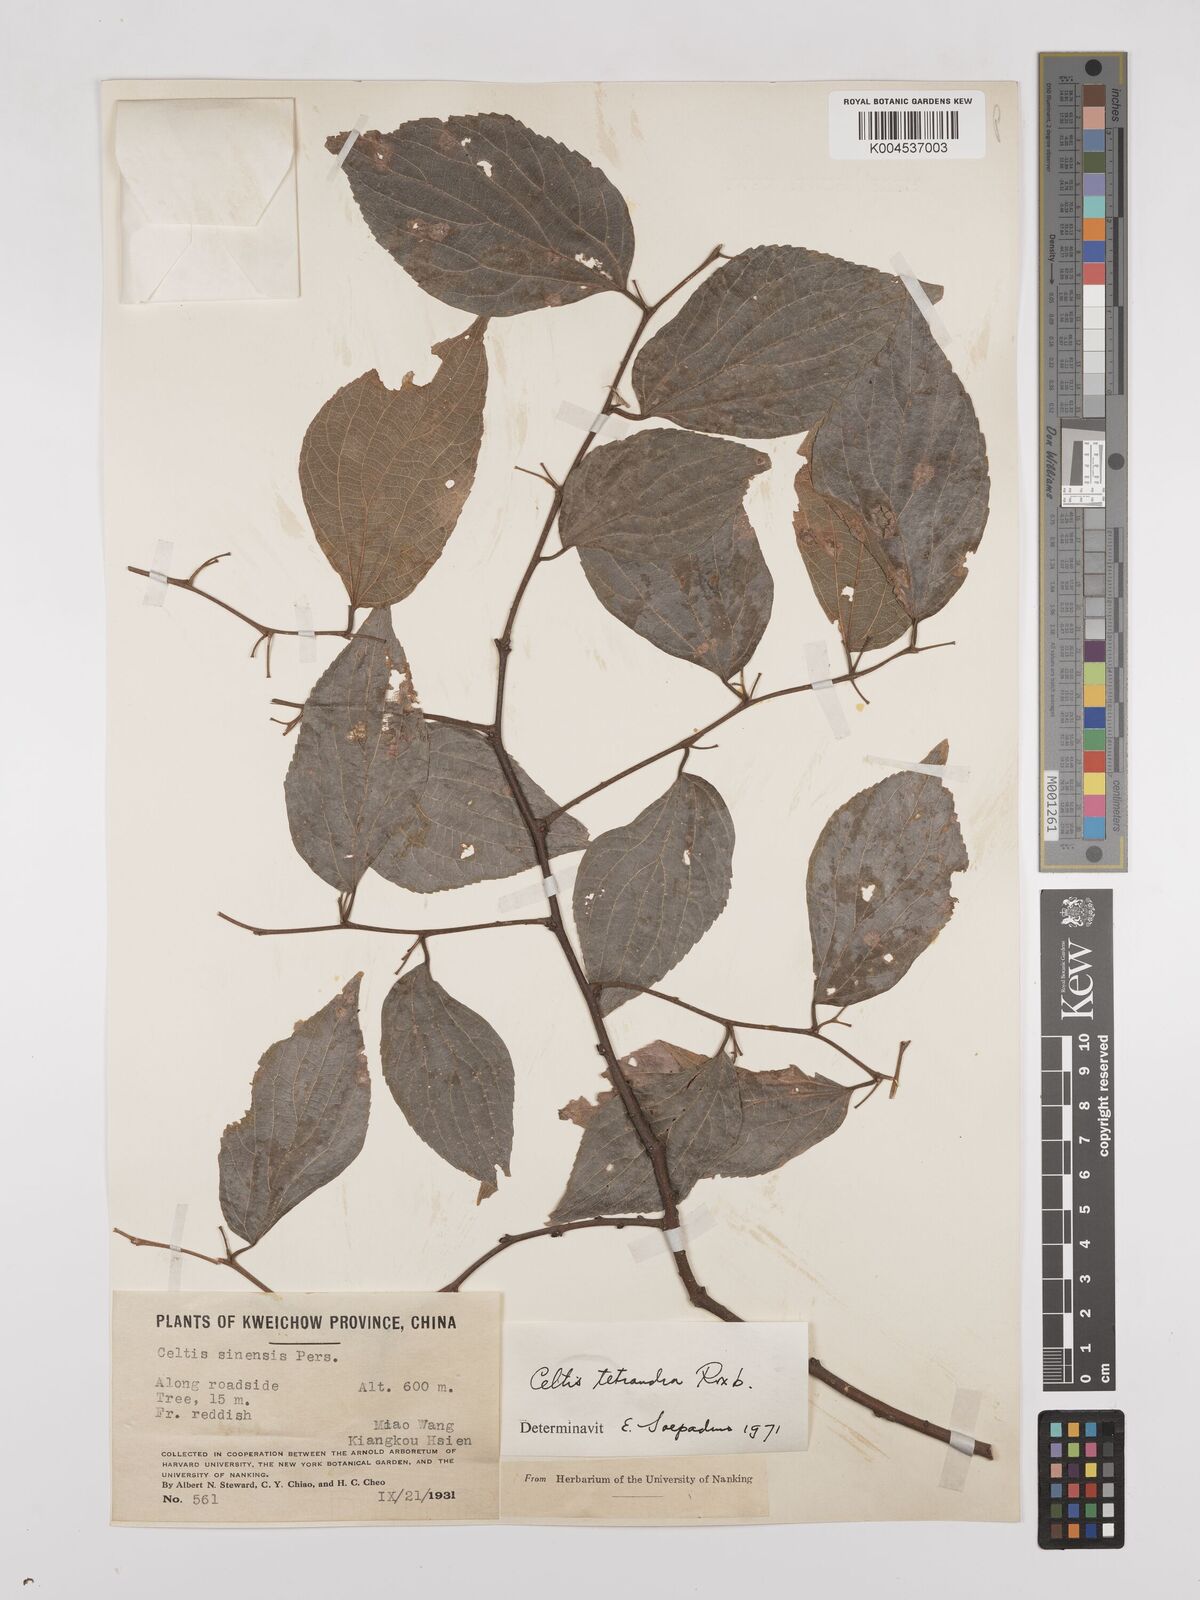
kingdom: Plantae
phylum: Tracheophyta
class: Magnoliopsida
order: Rosales
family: Cannabaceae
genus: Celtis
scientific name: Celtis tetrandra
